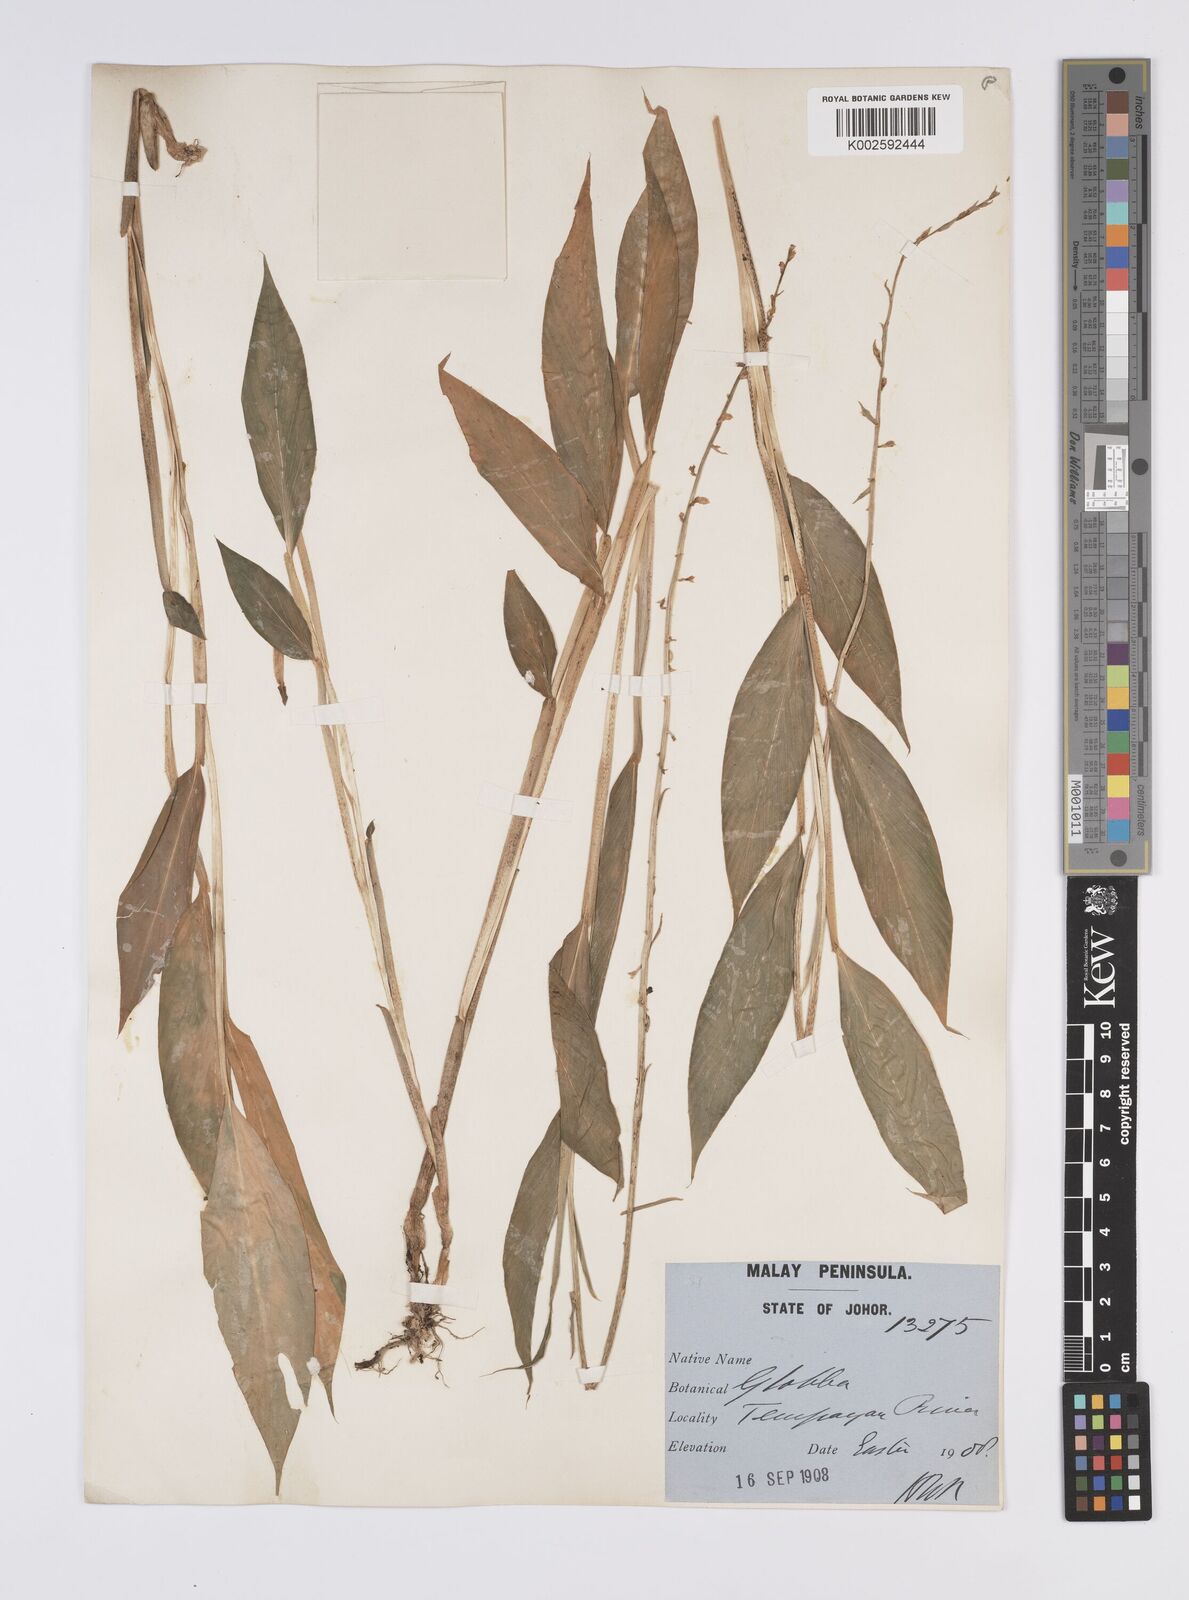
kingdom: Plantae
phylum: Tracheophyta
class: Liliopsida
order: Zingiberales
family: Zingiberaceae
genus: Globba
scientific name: Globba pendula
